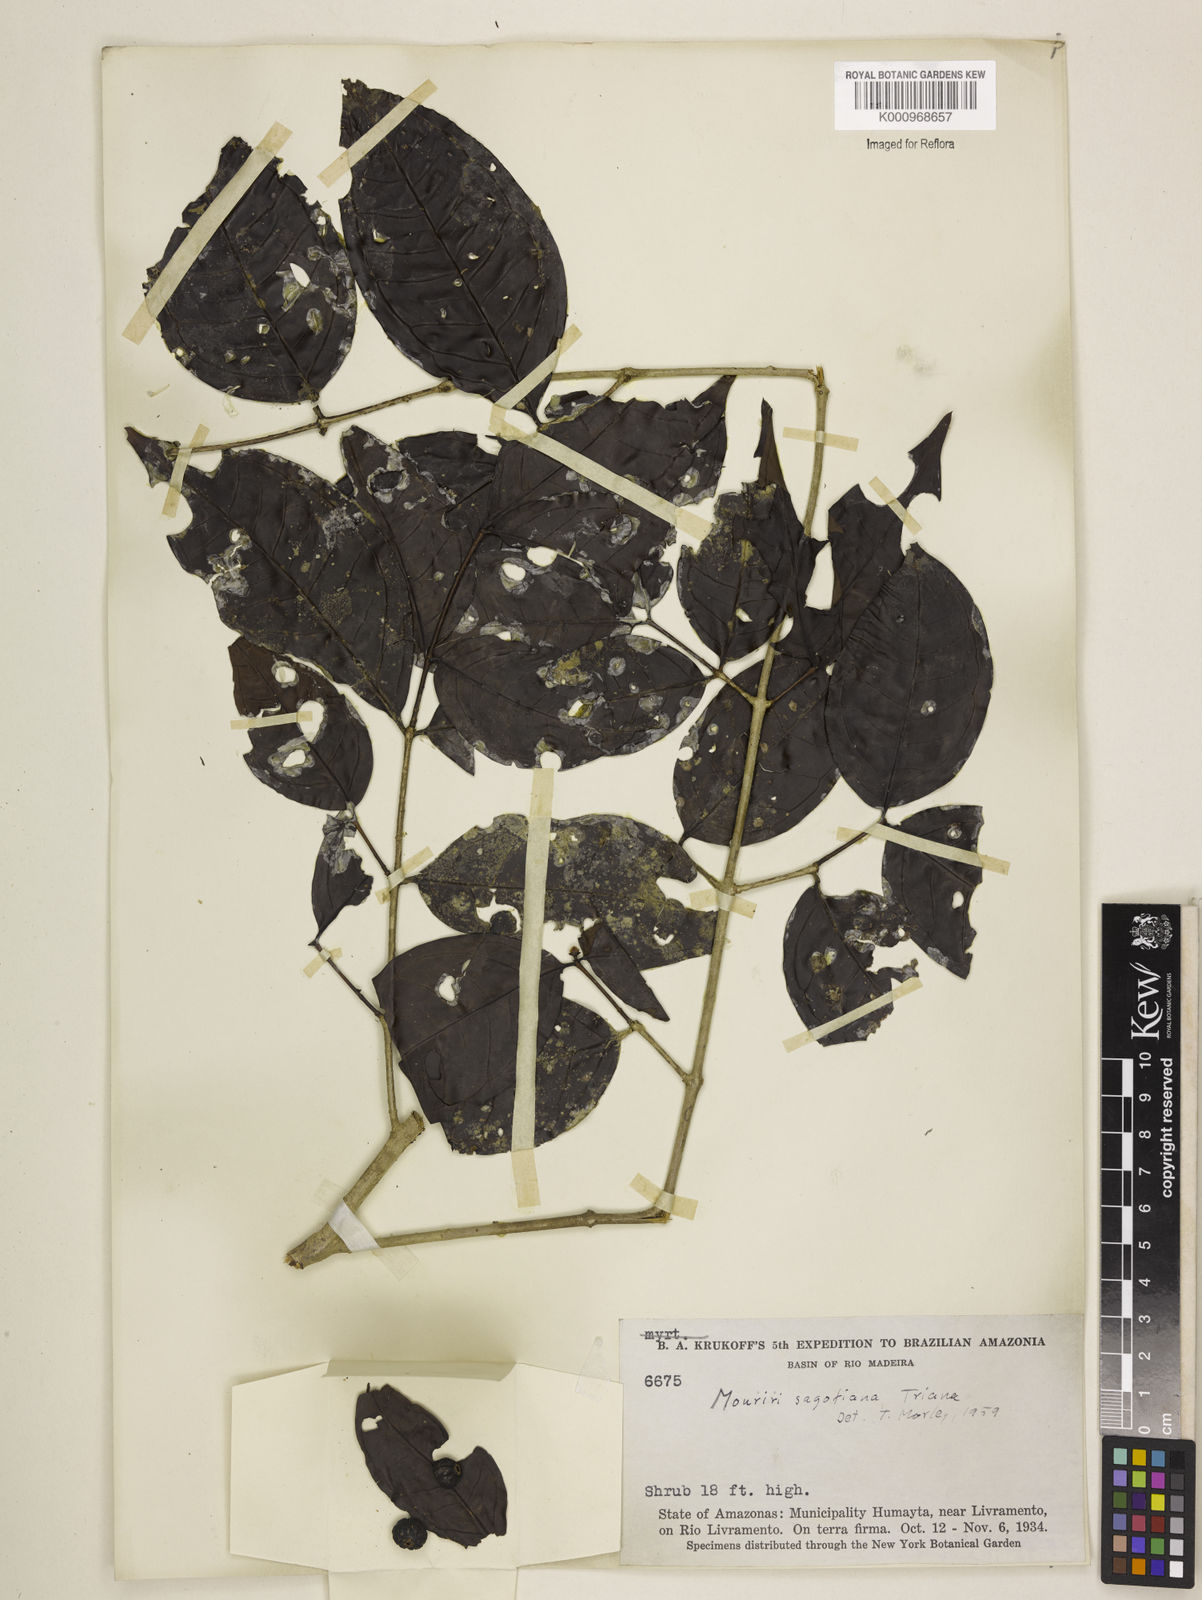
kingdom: Plantae
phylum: Tracheophyta
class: Magnoliopsida
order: Myrtales
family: Melastomataceae
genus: Mouriri
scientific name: Mouriri sagotiana
